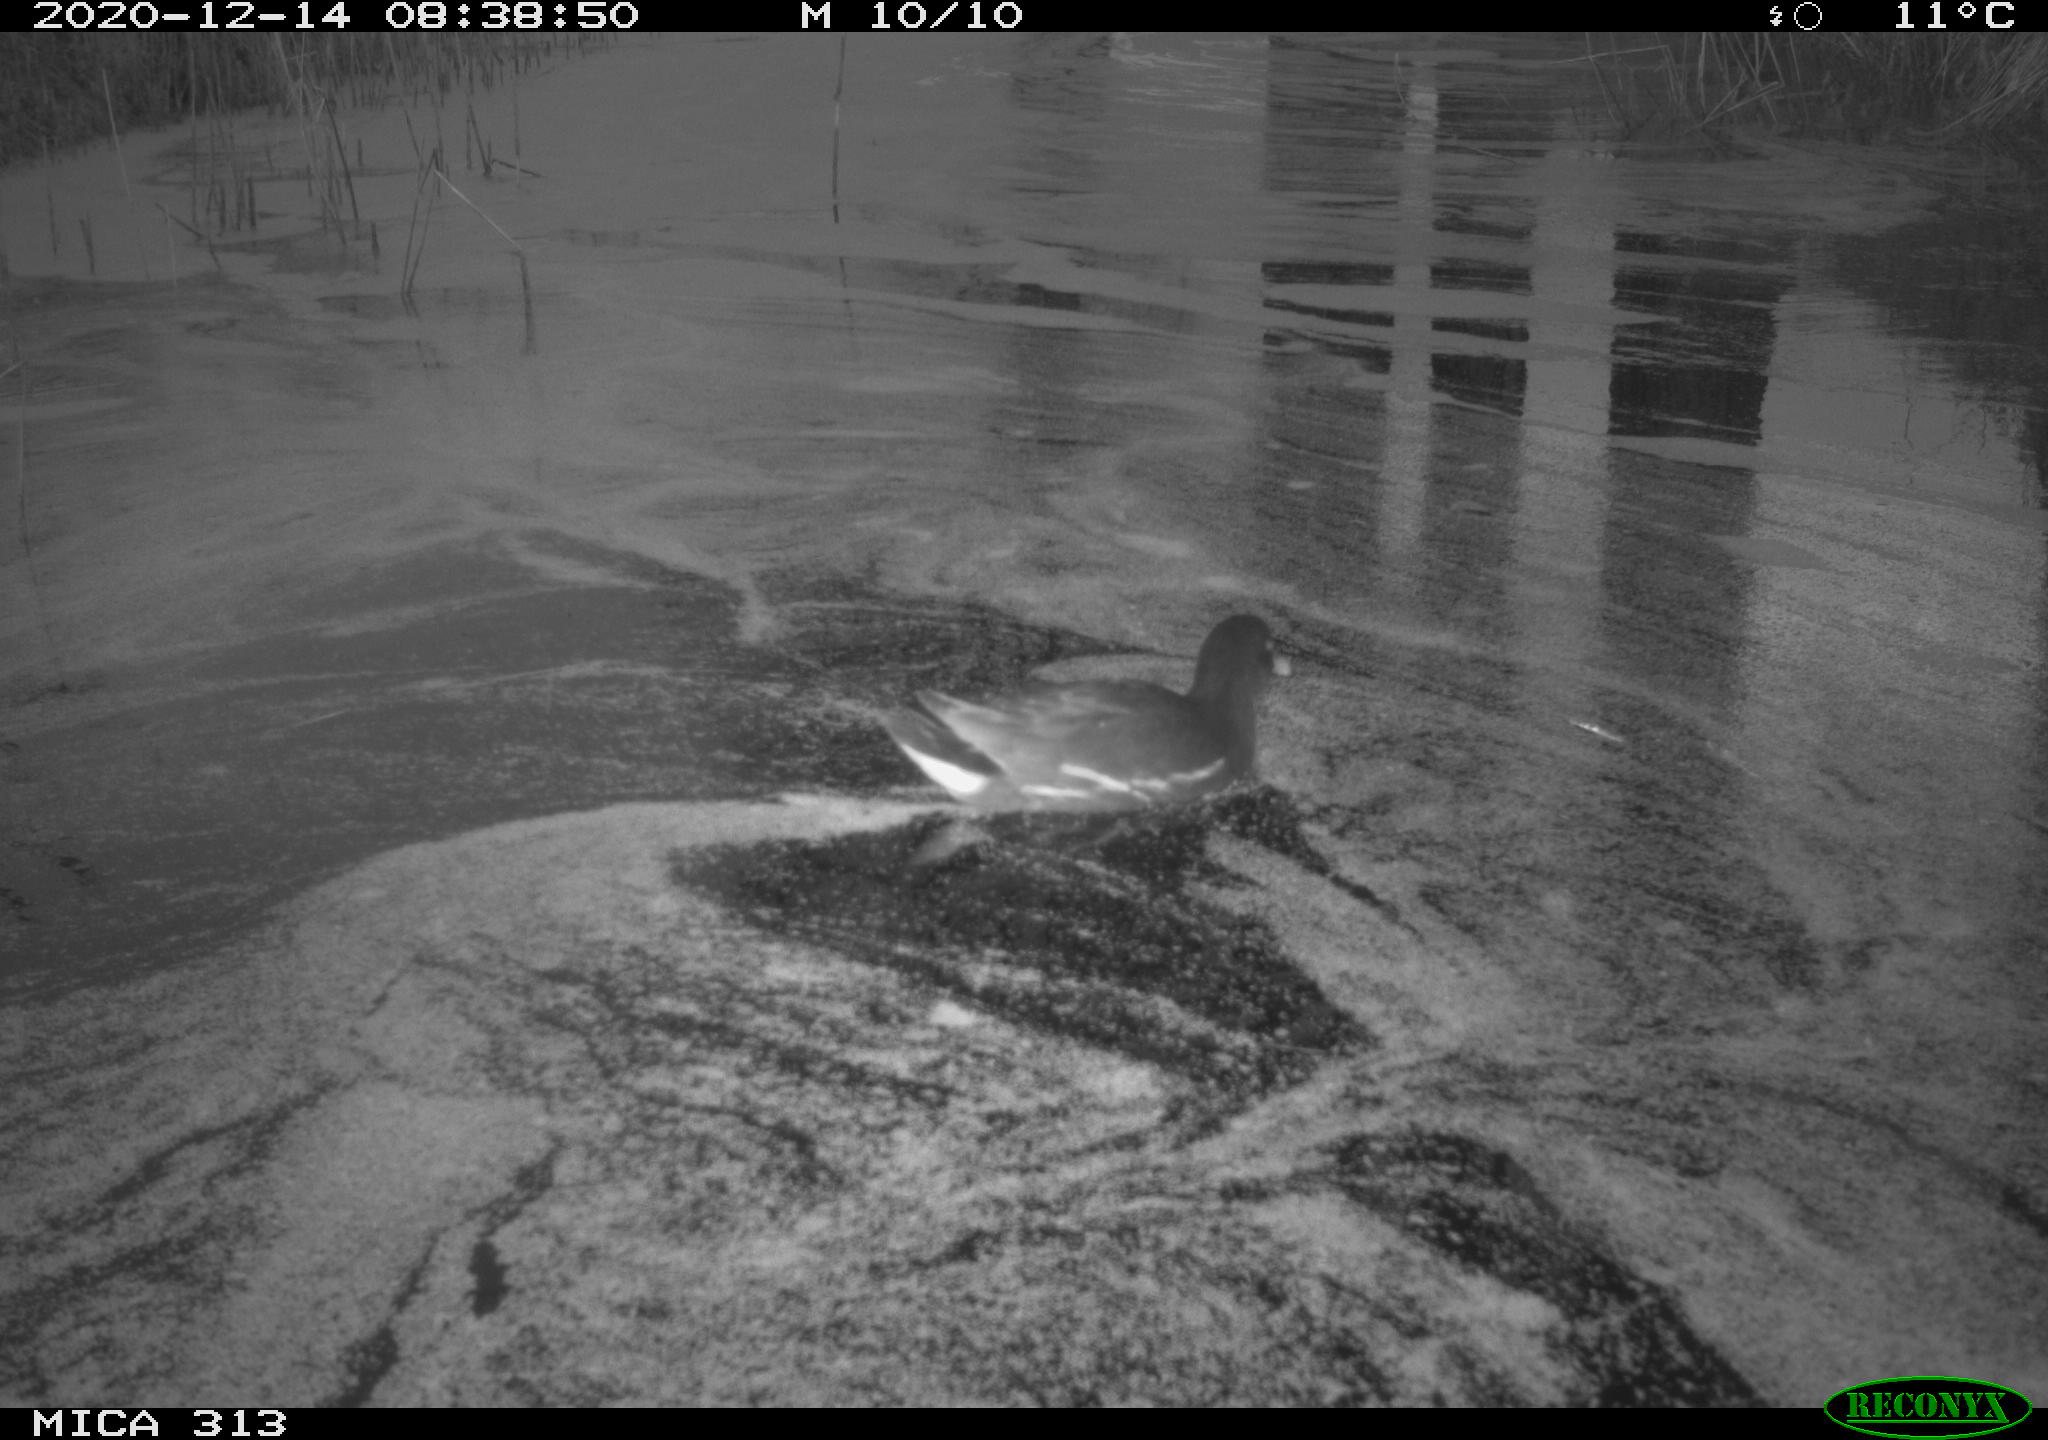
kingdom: Animalia
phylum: Chordata
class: Aves
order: Gruiformes
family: Rallidae
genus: Gallinula
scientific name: Gallinula chloropus
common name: Common moorhen
